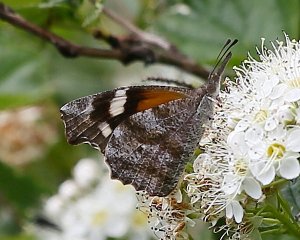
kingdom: Animalia
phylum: Arthropoda
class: Insecta
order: Lepidoptera
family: Nymphalidae
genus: Libytheana
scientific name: Libytheana carinenta
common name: American Snout
